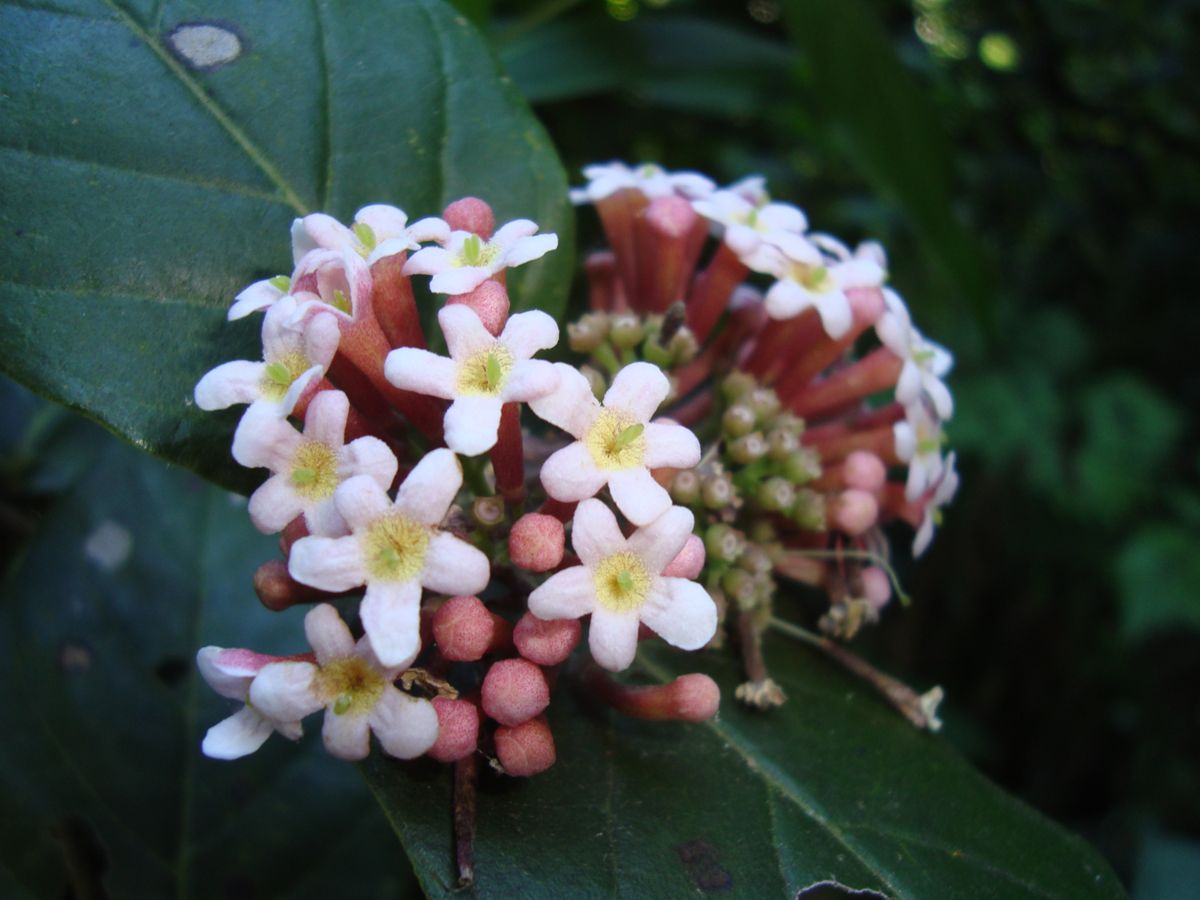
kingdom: Plantae
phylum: Tracheophyta
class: Magnoliopsida
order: Gentianales
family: Rubiaceae
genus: Rogiera
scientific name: Rogiera cordata
